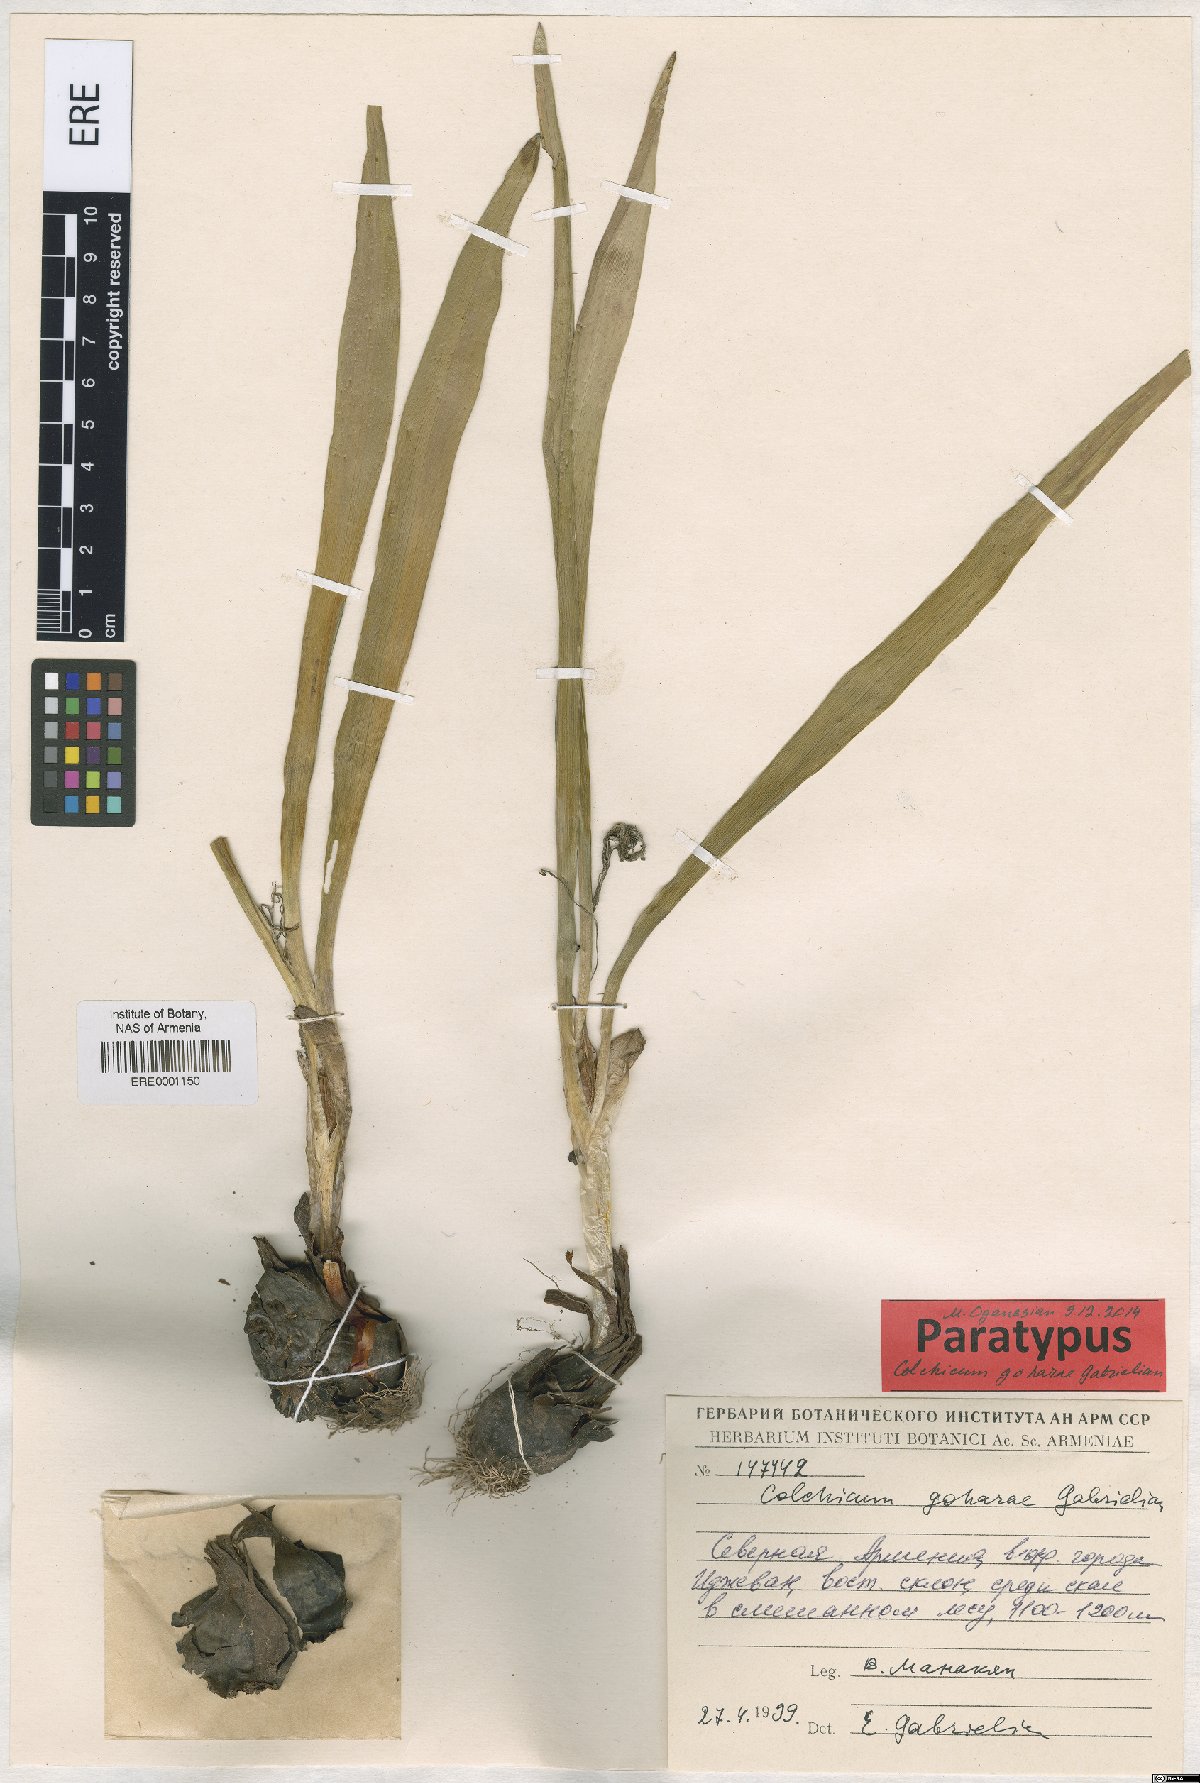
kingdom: Plantae
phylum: Tracheophyta
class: Liliopsida
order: Liliales
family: Colchicaceae
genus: Colchicum
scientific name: Colchicum szovitsii
